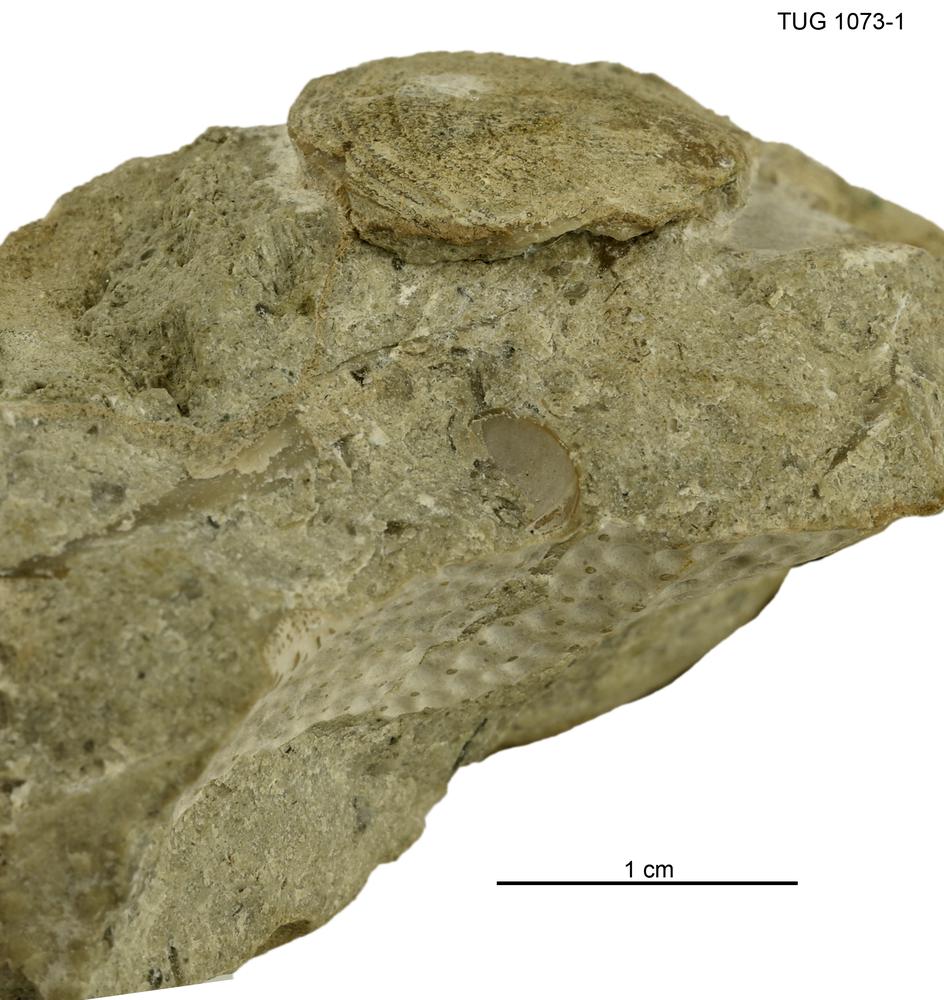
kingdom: Animalia
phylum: Brachiopoda
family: Gonambonitidae
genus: Estlandia
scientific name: Estlandia
